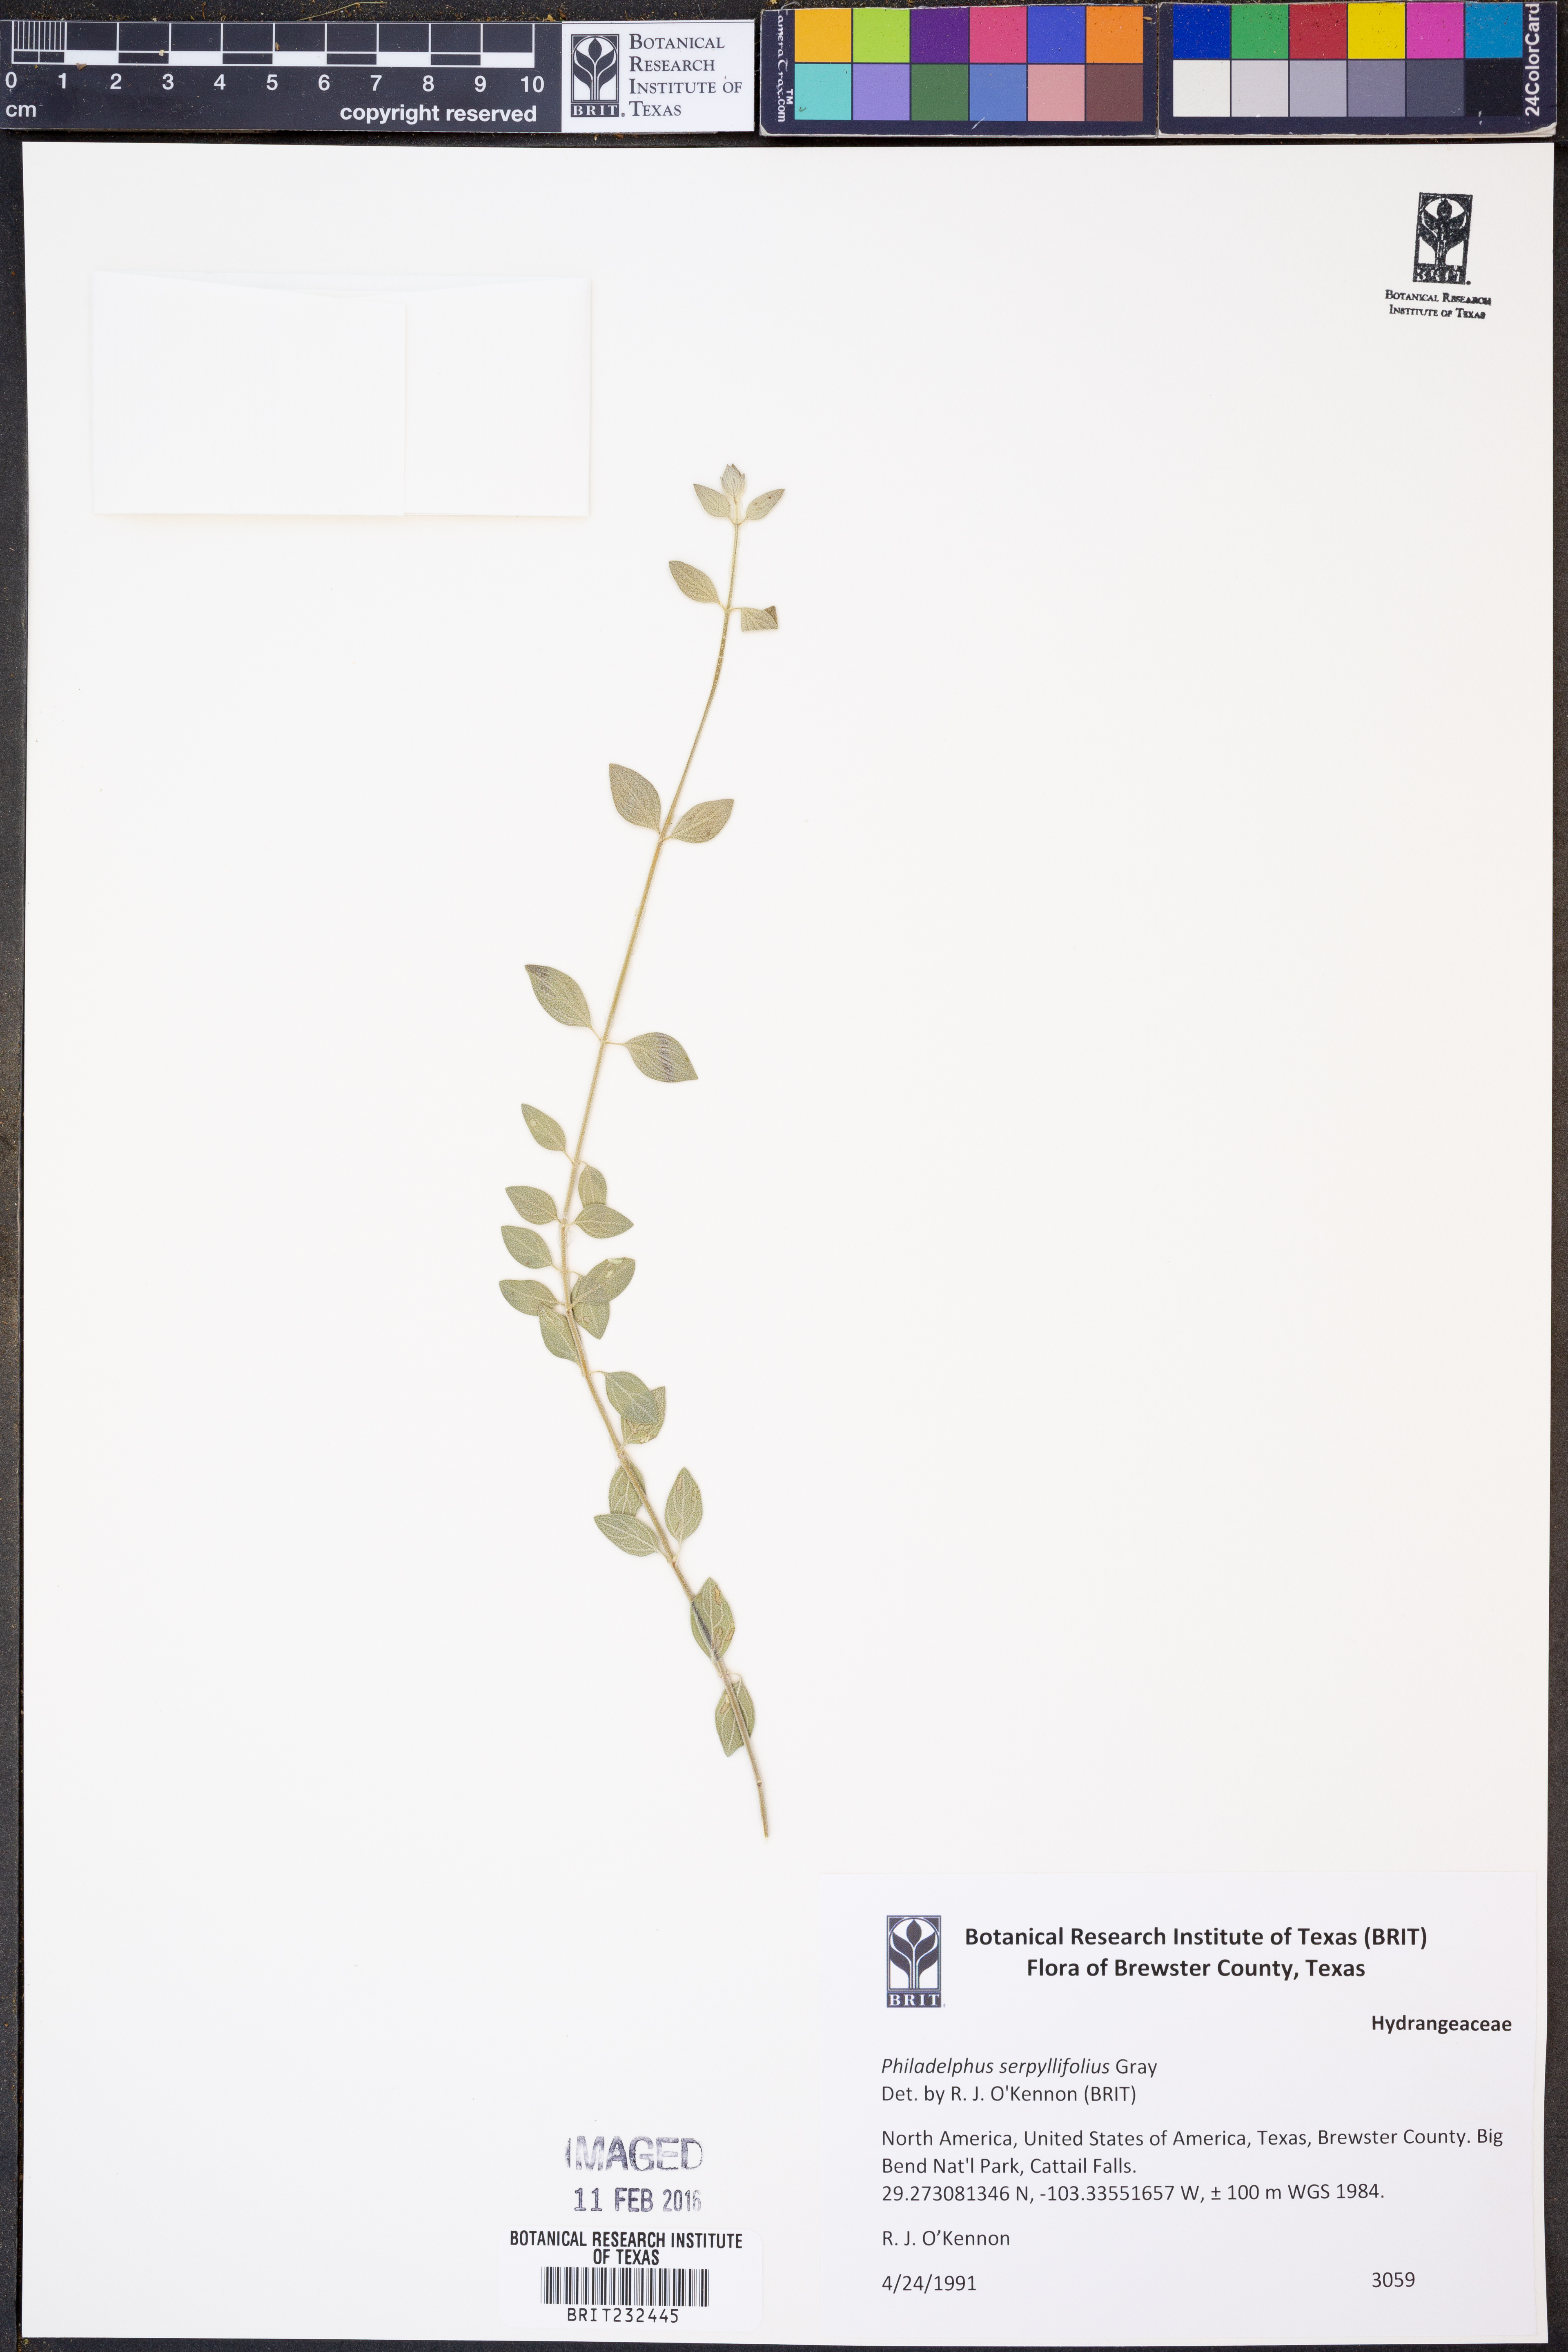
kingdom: Plantae
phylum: Tracheophyta
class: Magnoliopsida
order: Cornales
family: Hydrangeaceae
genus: Philadelphus
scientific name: Philadelphus serpyllifolius
